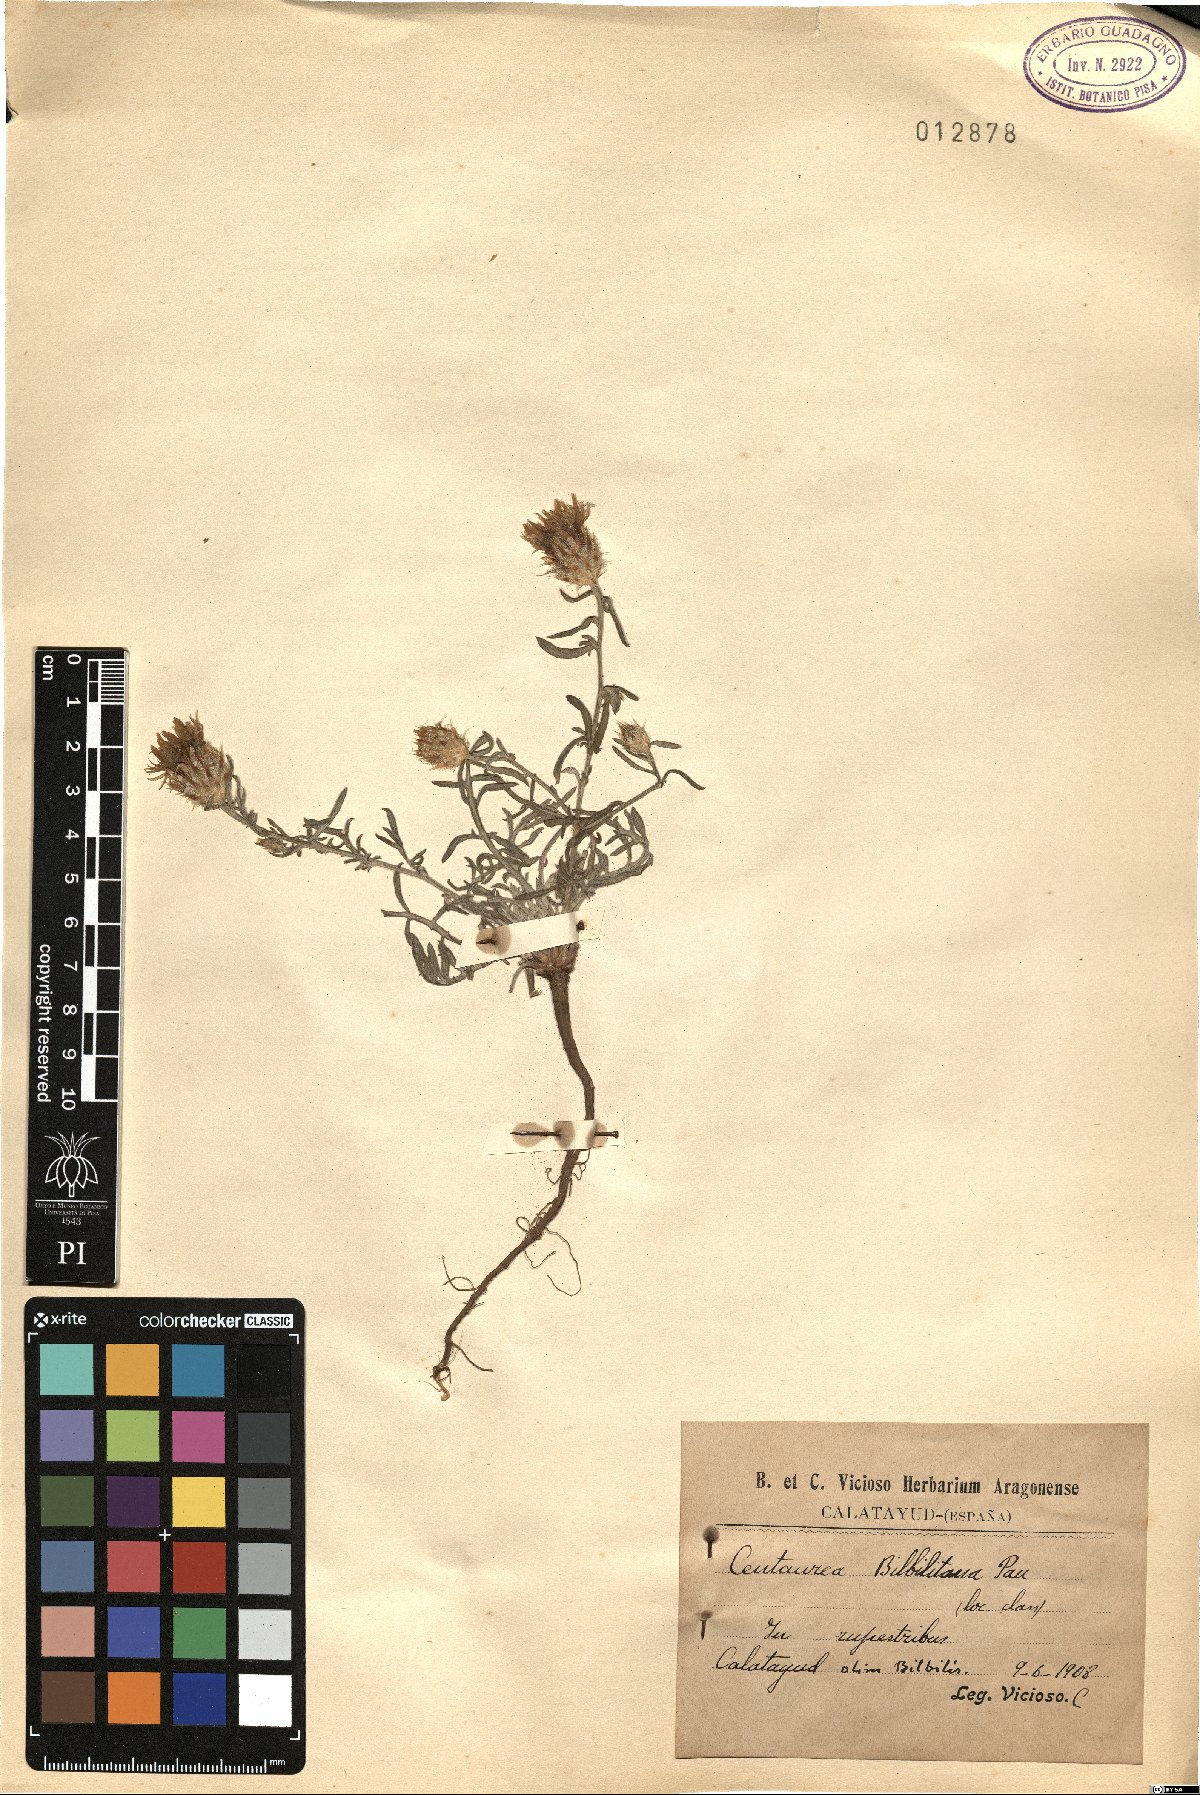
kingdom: Plantae
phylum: Tracheophyta
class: Magnoliopsida
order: Asterales
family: Asteraceae
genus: Centaurea
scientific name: Centaurea bilbilitana
